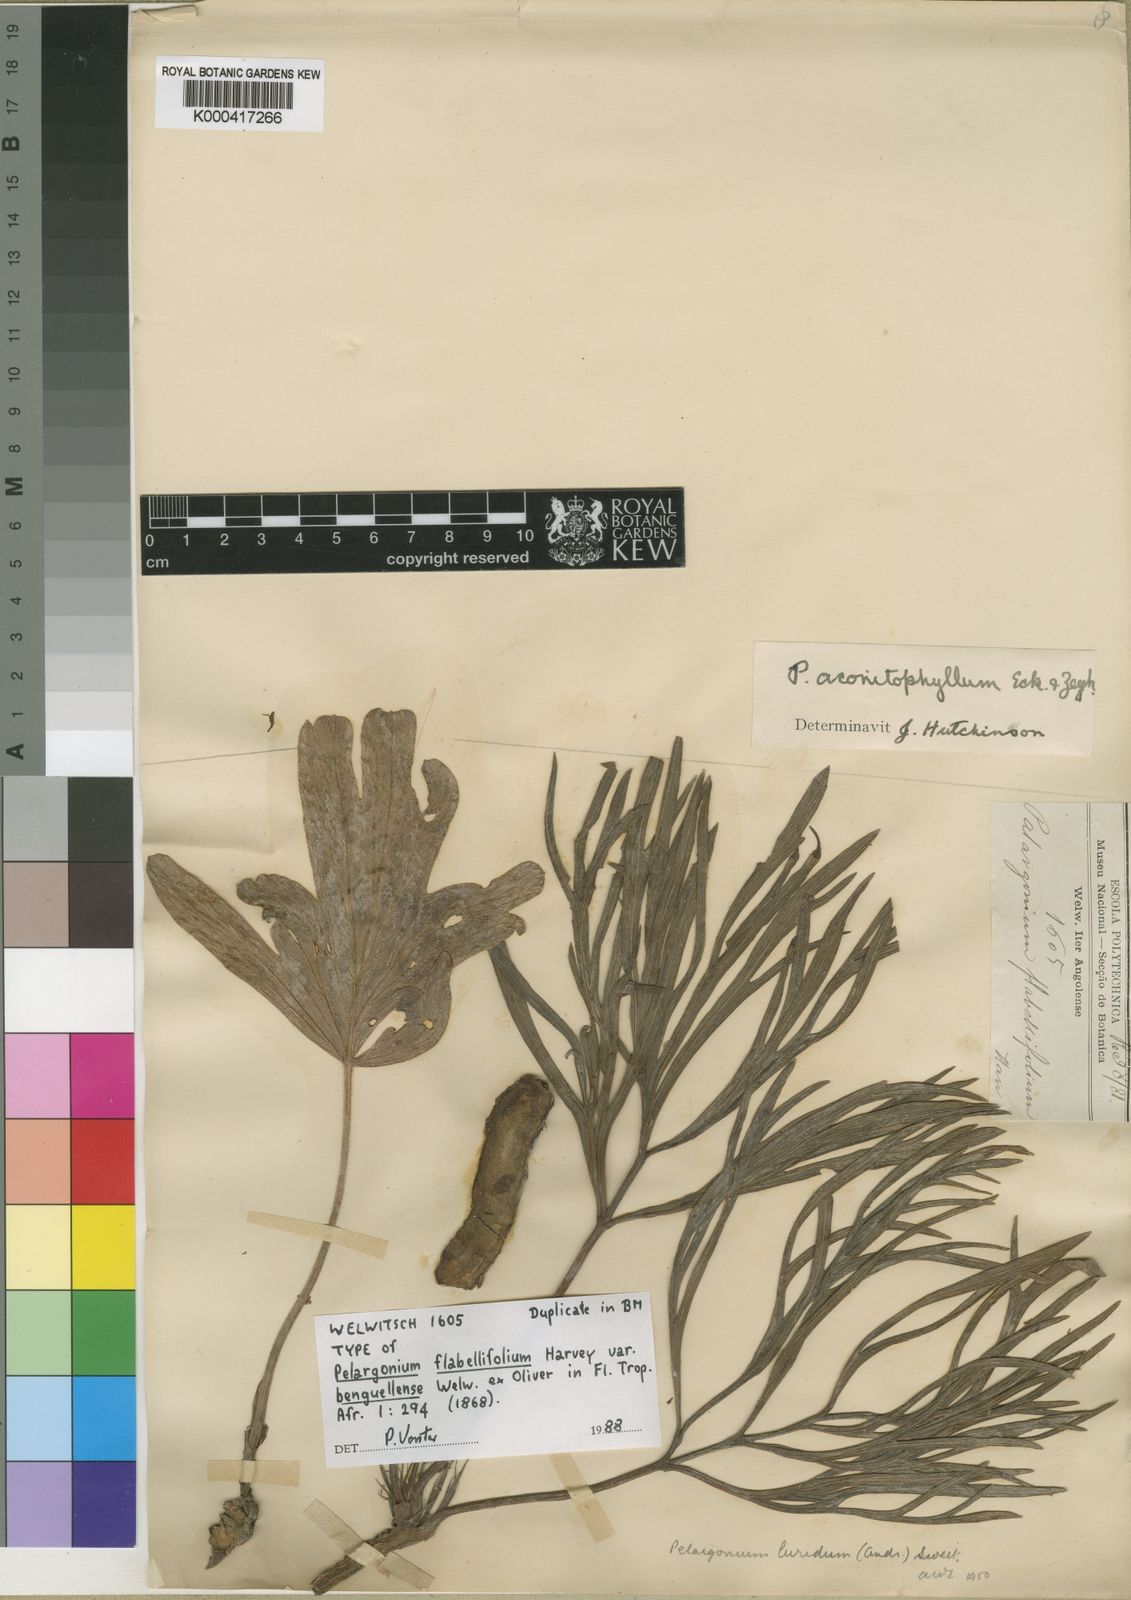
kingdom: Plantae
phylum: Tracheophyta
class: Magnoliopsida
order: Geraniales
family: Geraniaceae
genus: Pelargonium
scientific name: Pelargonium luridum
